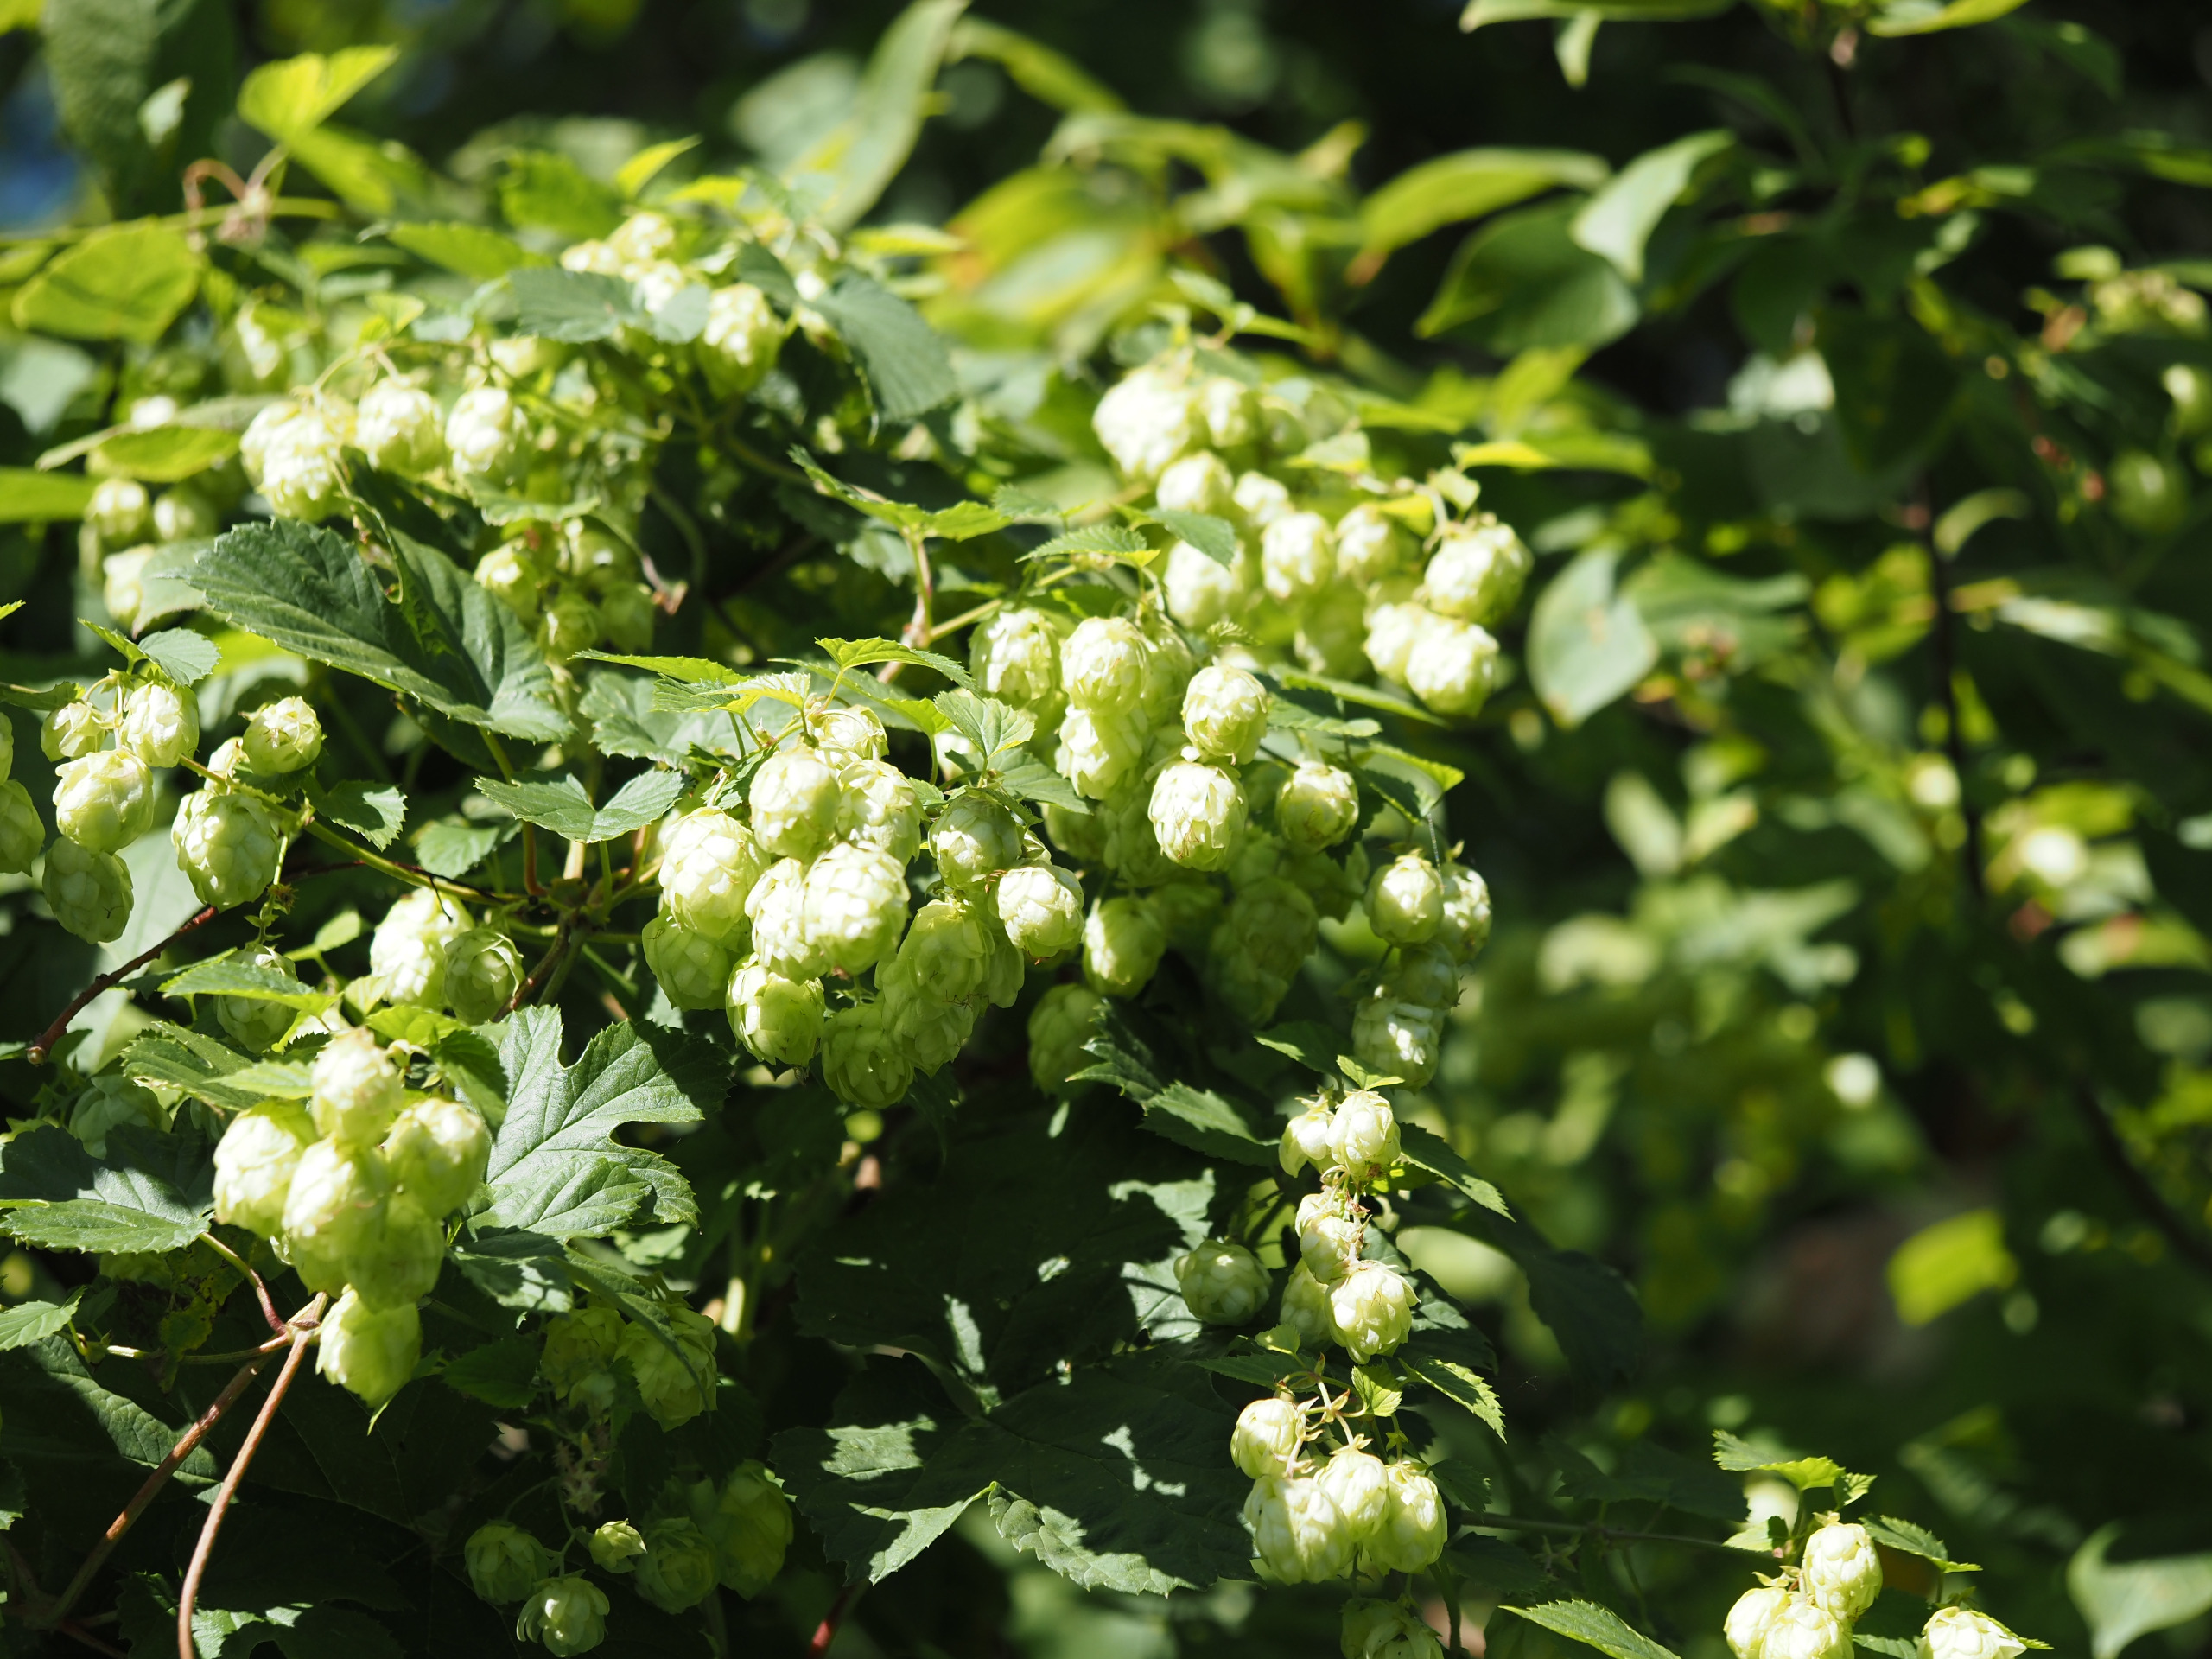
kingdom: Plantae
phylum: Tracheophyta
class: Magnoliopsida
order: Rosales
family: Cannabaceae
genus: Humulus
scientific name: Humulus lupulus
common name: Humle
